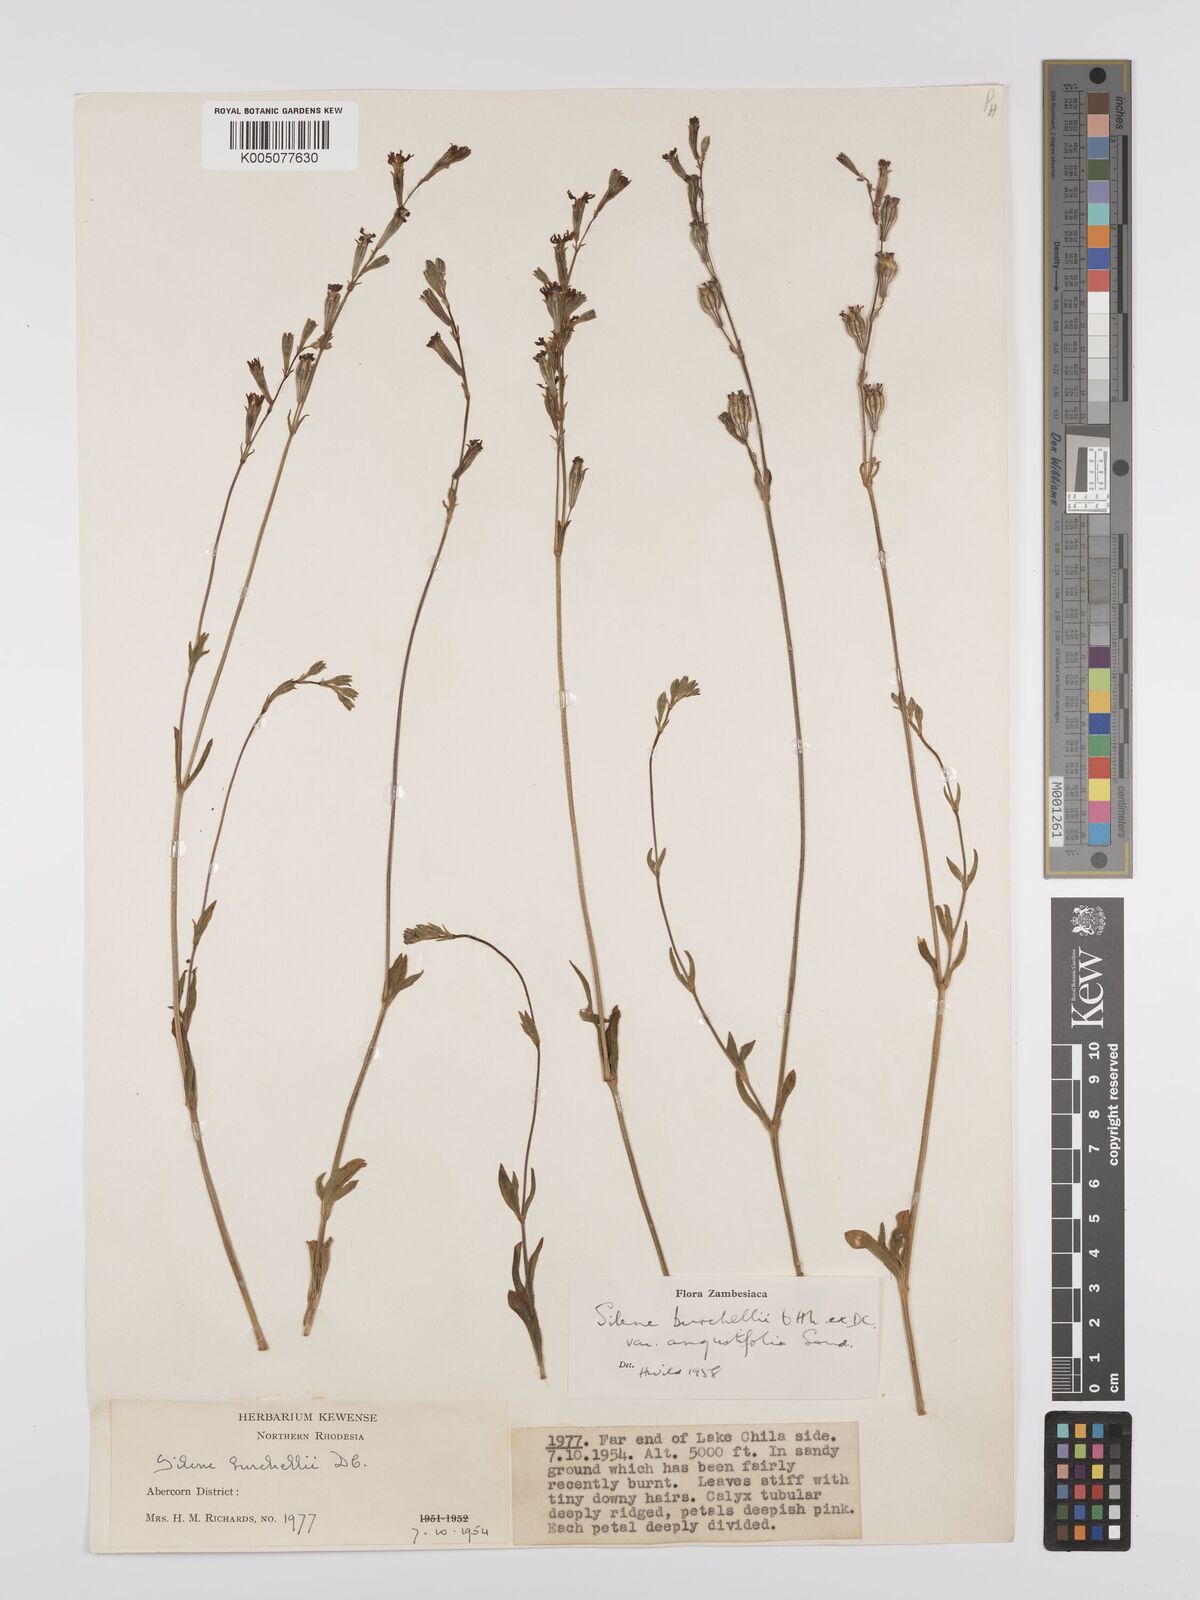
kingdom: Plantae
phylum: Tracheophyta
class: Magnoliopsida
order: Caryophyllales
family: Caryophyllaceae
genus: Silene
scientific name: Silene burchellii
